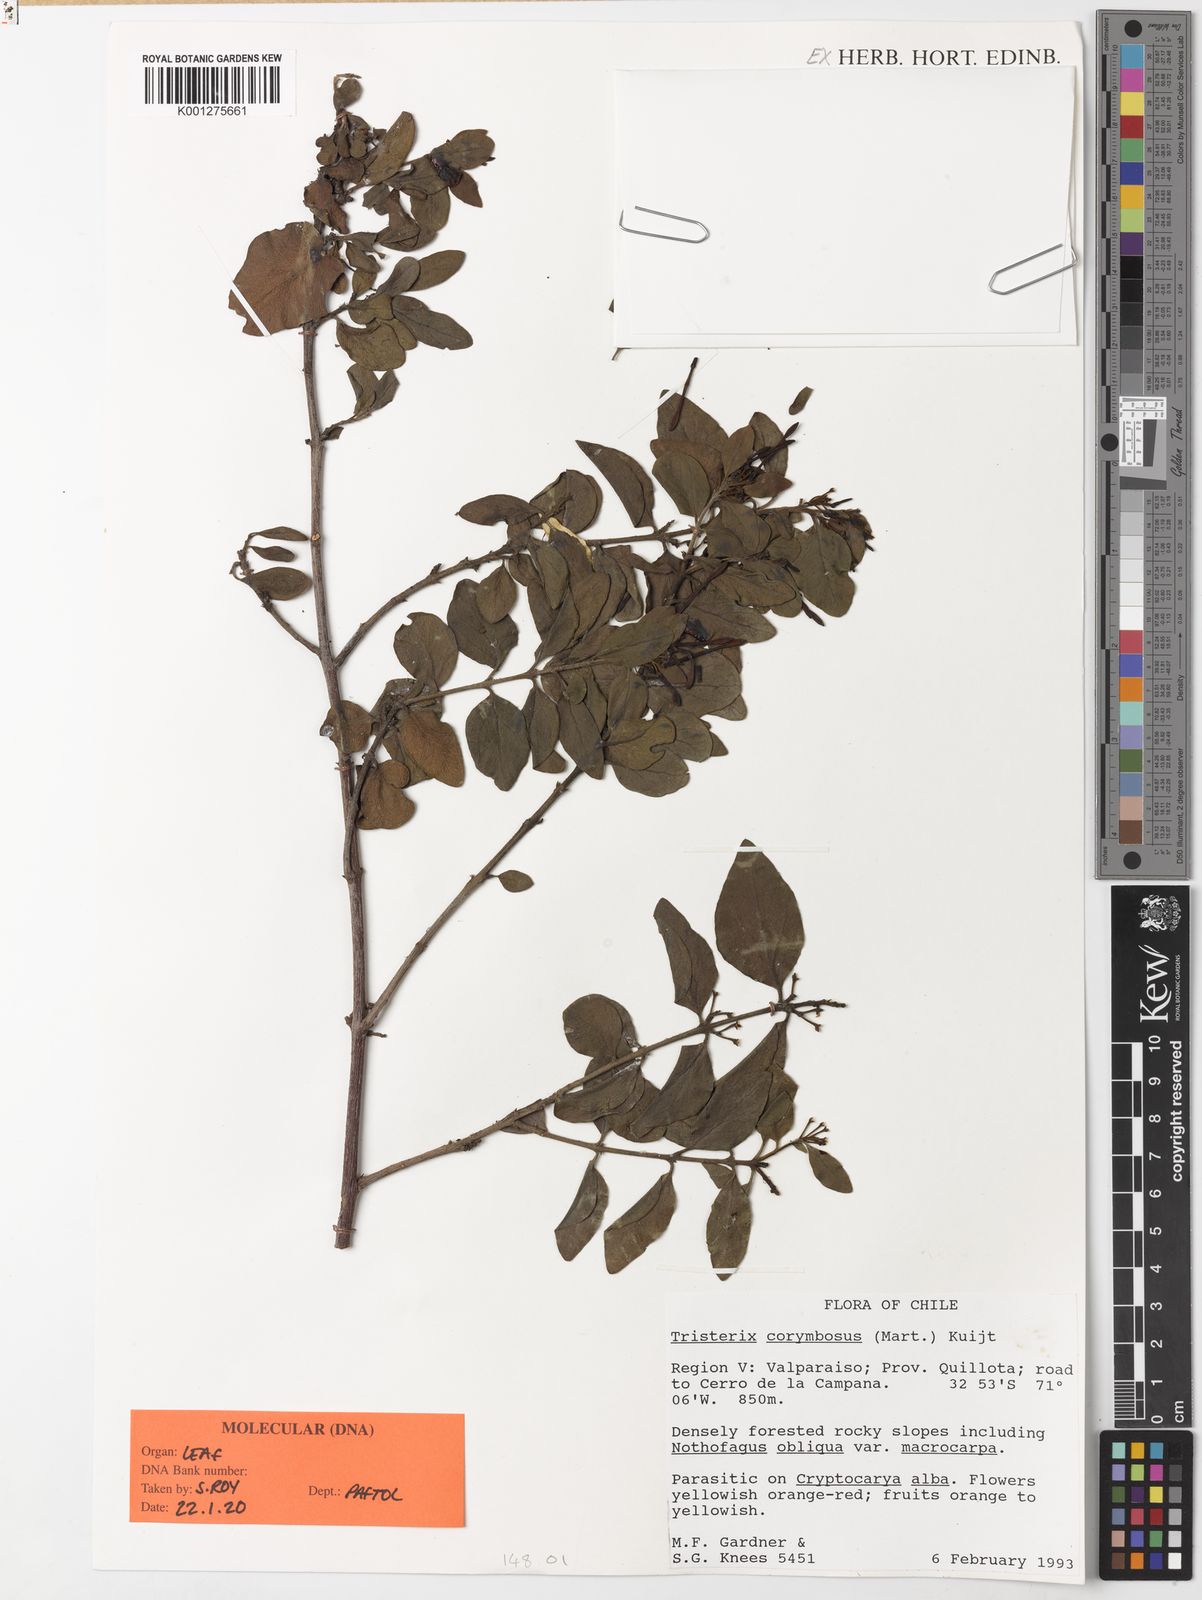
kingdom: Plantae
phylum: Tracheophyta
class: Magnoliopsida
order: Santalales
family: Loranthaceae
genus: Tristerix
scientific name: Tristerix corymbosus
